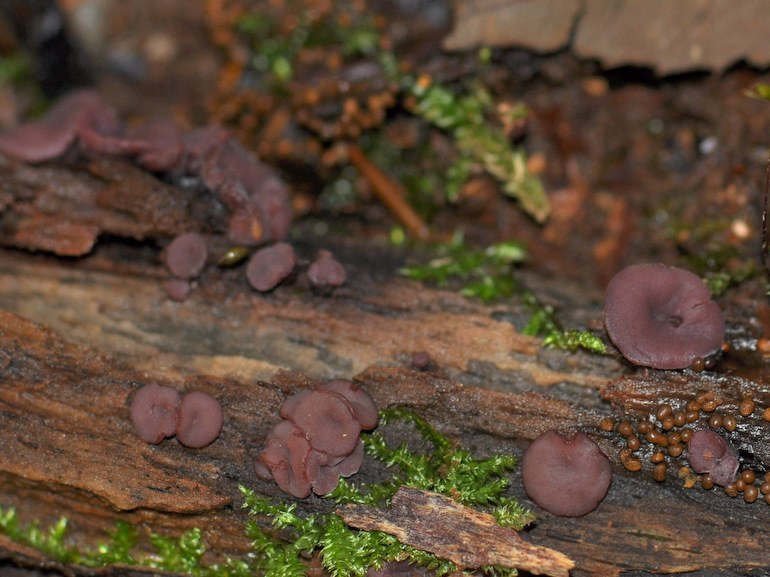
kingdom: Fungi
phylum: Ascomycota
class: Leotiomycetes
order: Helotiales
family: Gelatinodiscaceae
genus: Ascocoryne
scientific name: Ascocoryne cylichnium
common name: stor sejskive
